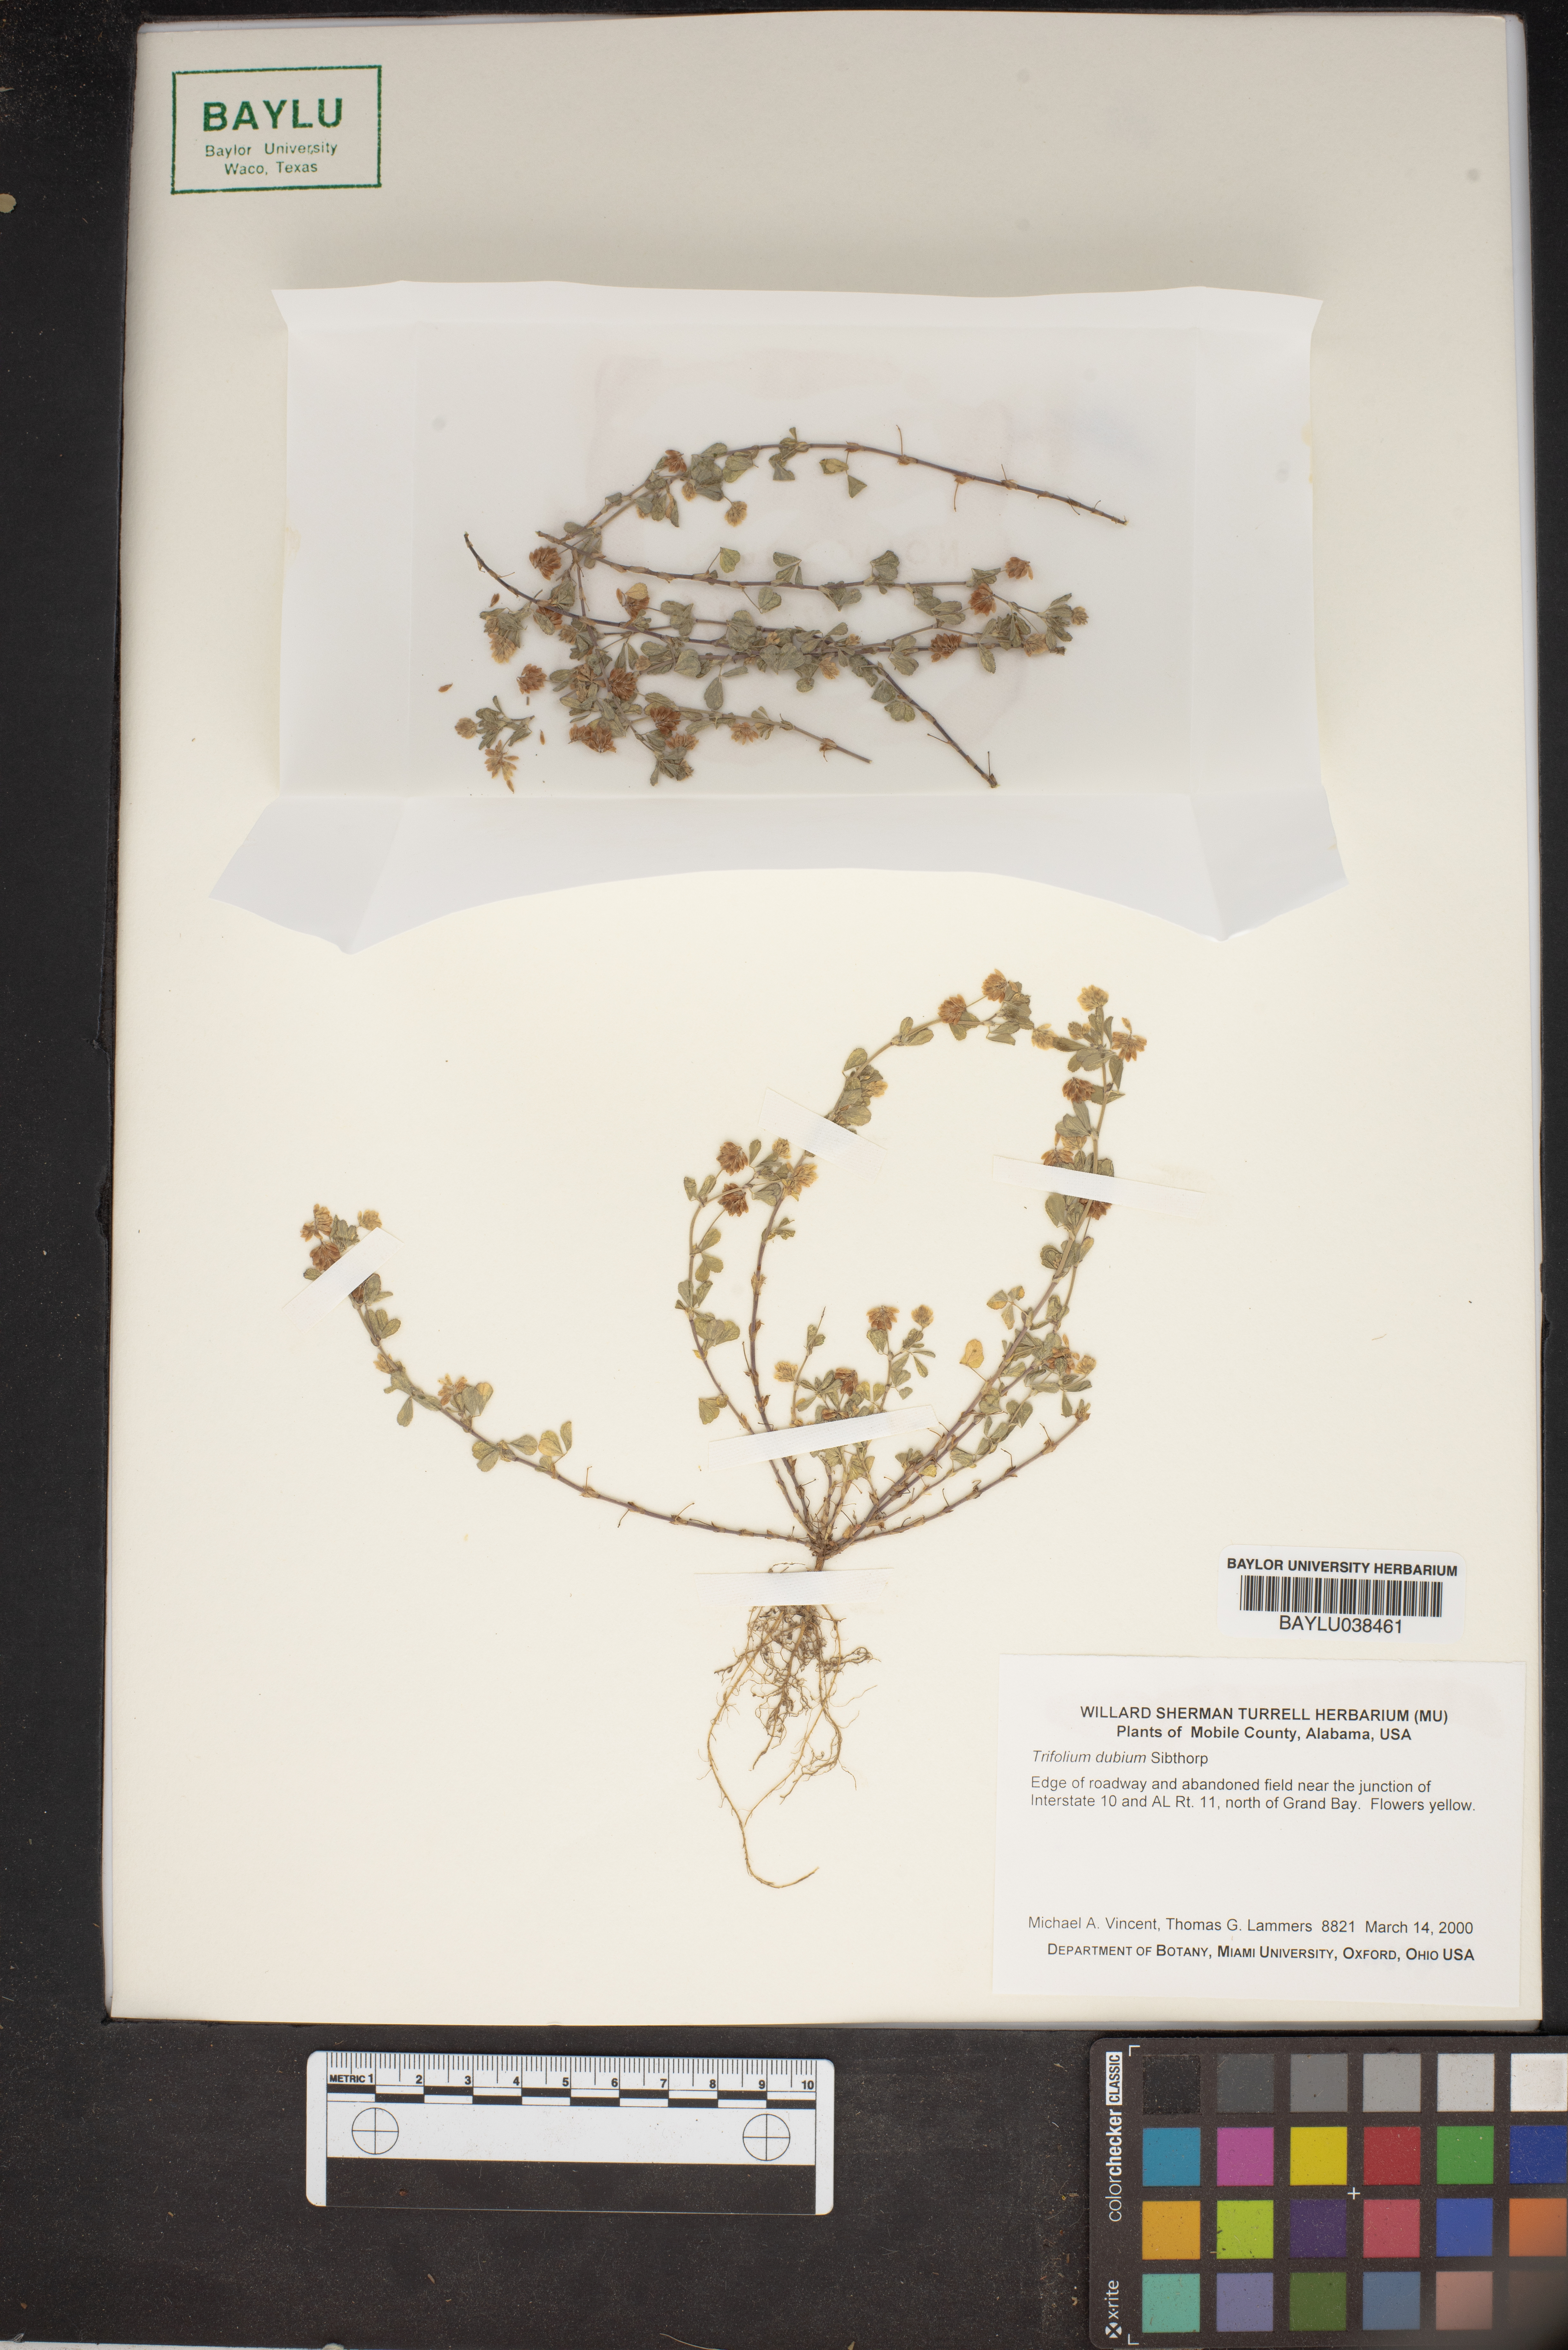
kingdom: Plantae
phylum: Tracheophyta
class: Magnoliopsida
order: Fabales
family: Fabaceae
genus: Trifolium
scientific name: Trifolium dubium
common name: Suckling clover
